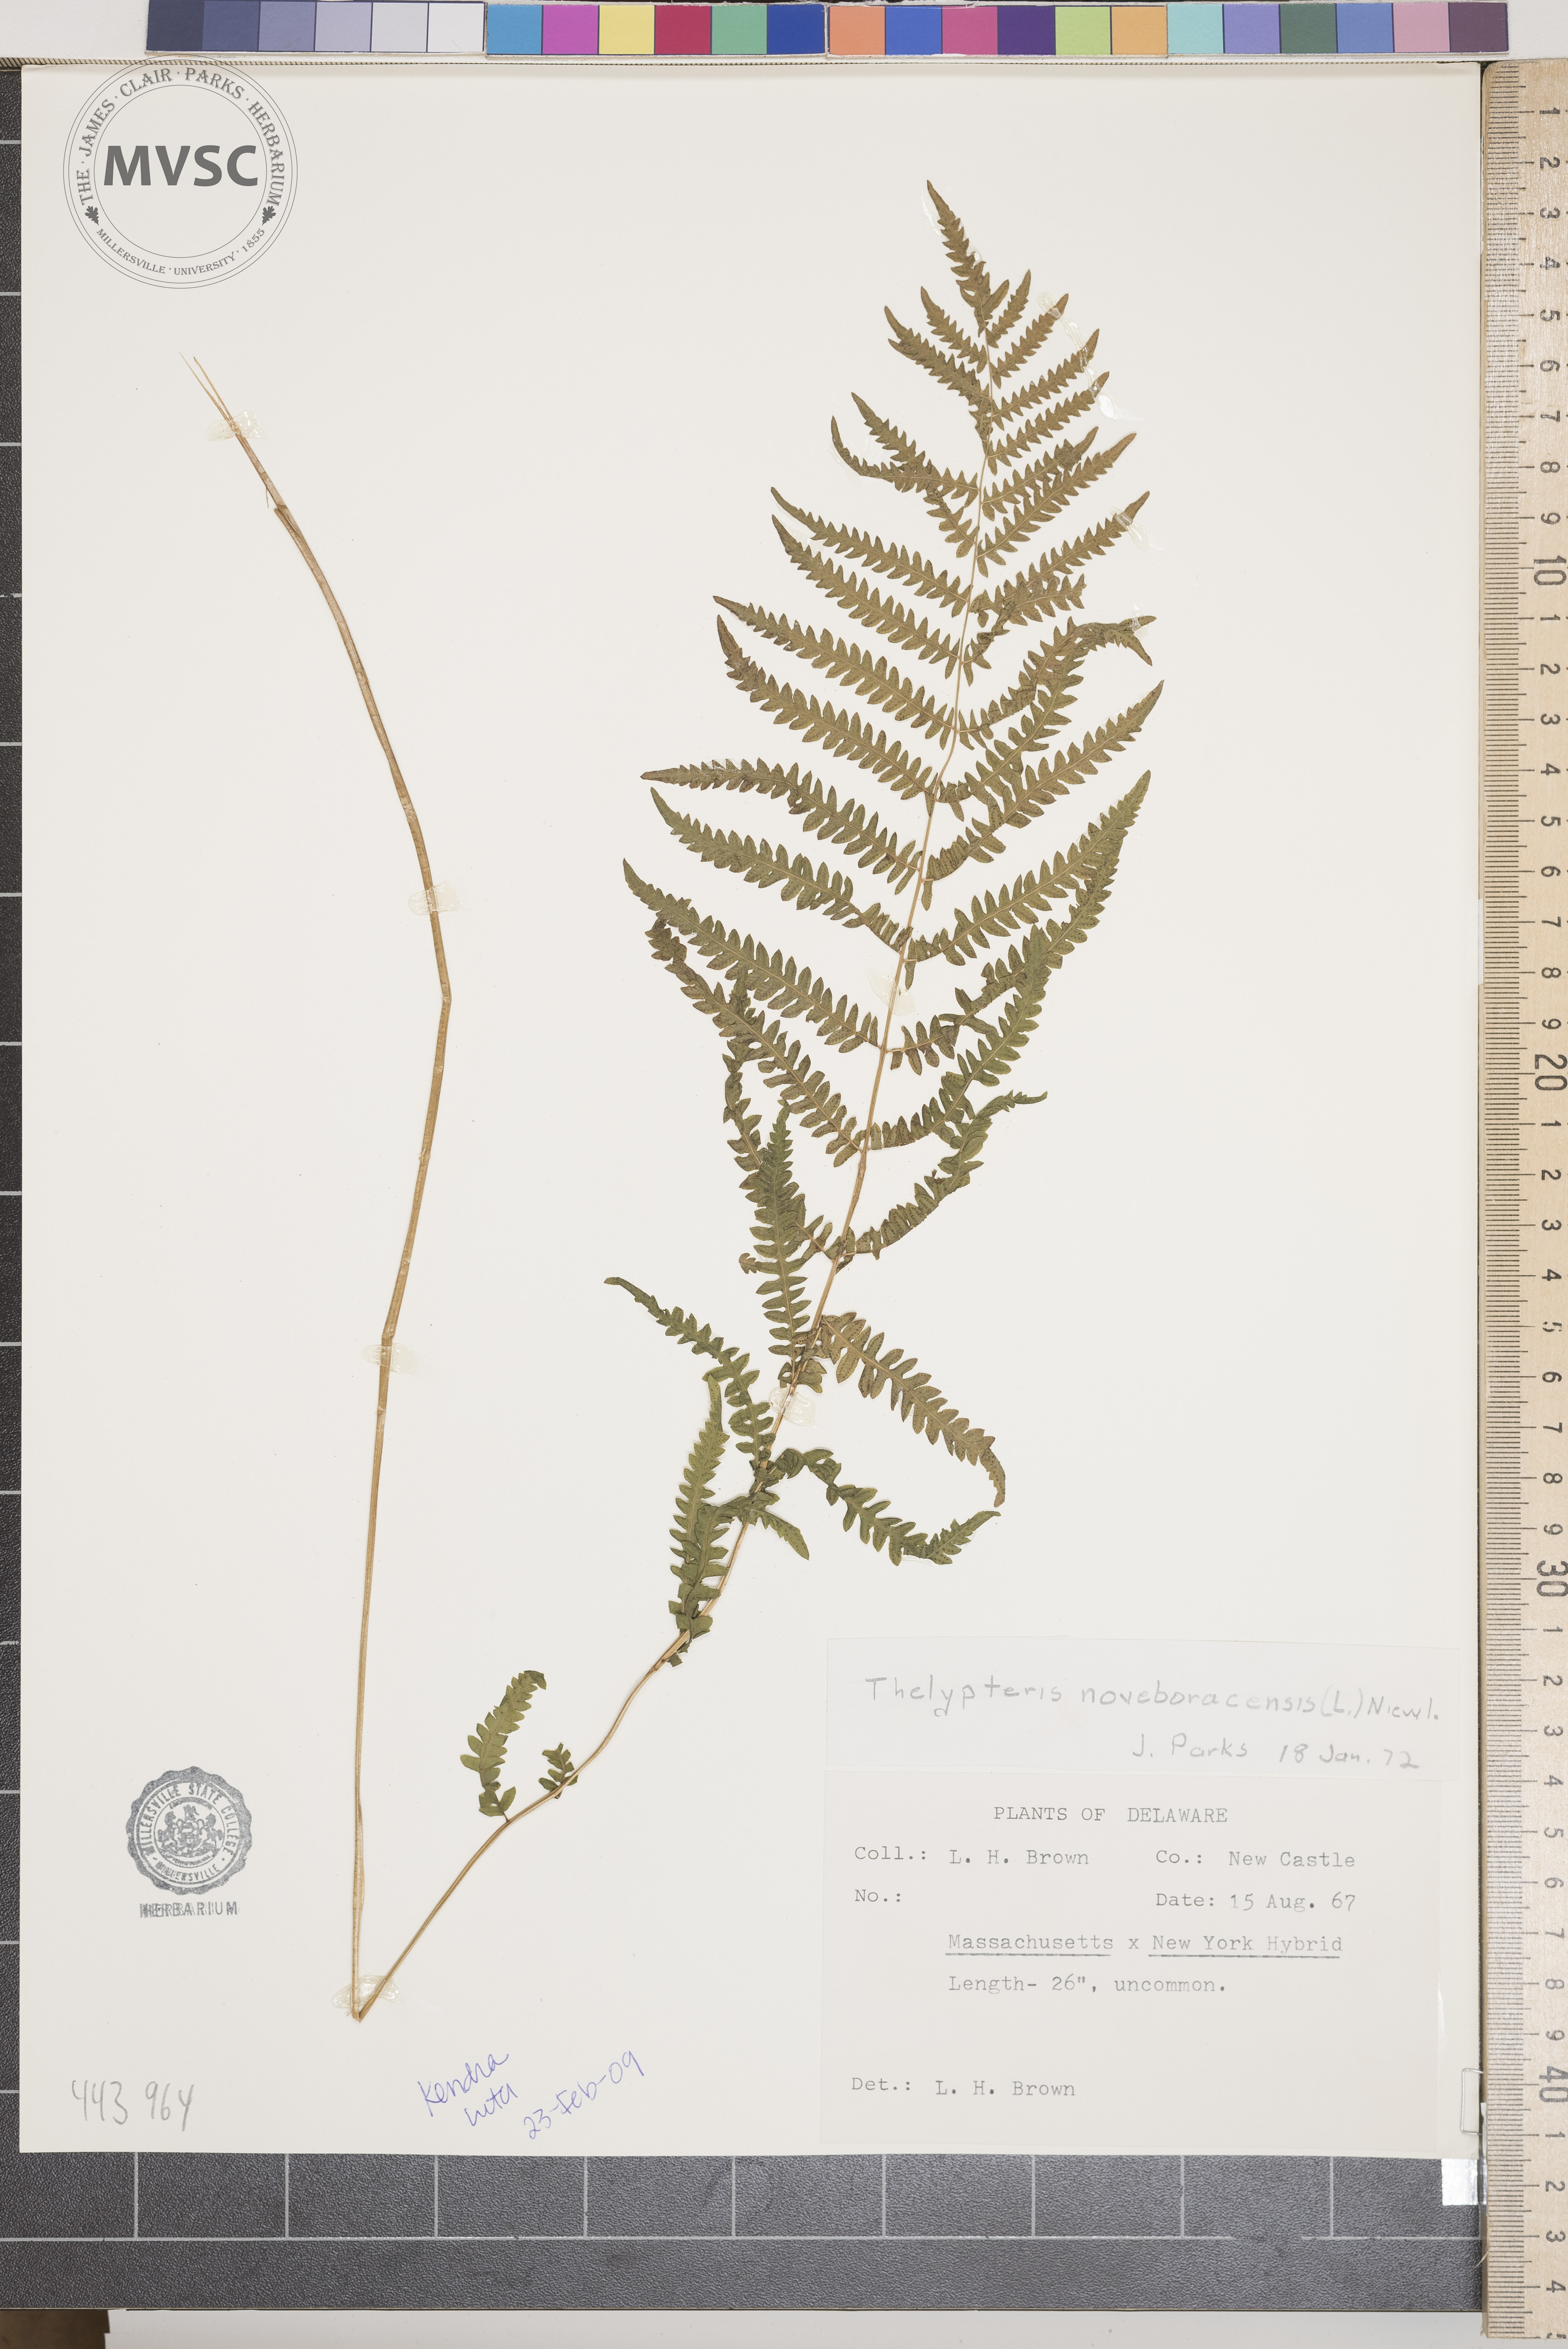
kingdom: Plantae
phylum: Tracheophyta
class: Polypodiopsida
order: Polypodiales
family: Thelypteridaceae
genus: Amauropelta
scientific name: Amauropelta noveboracensis
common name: New york fern
